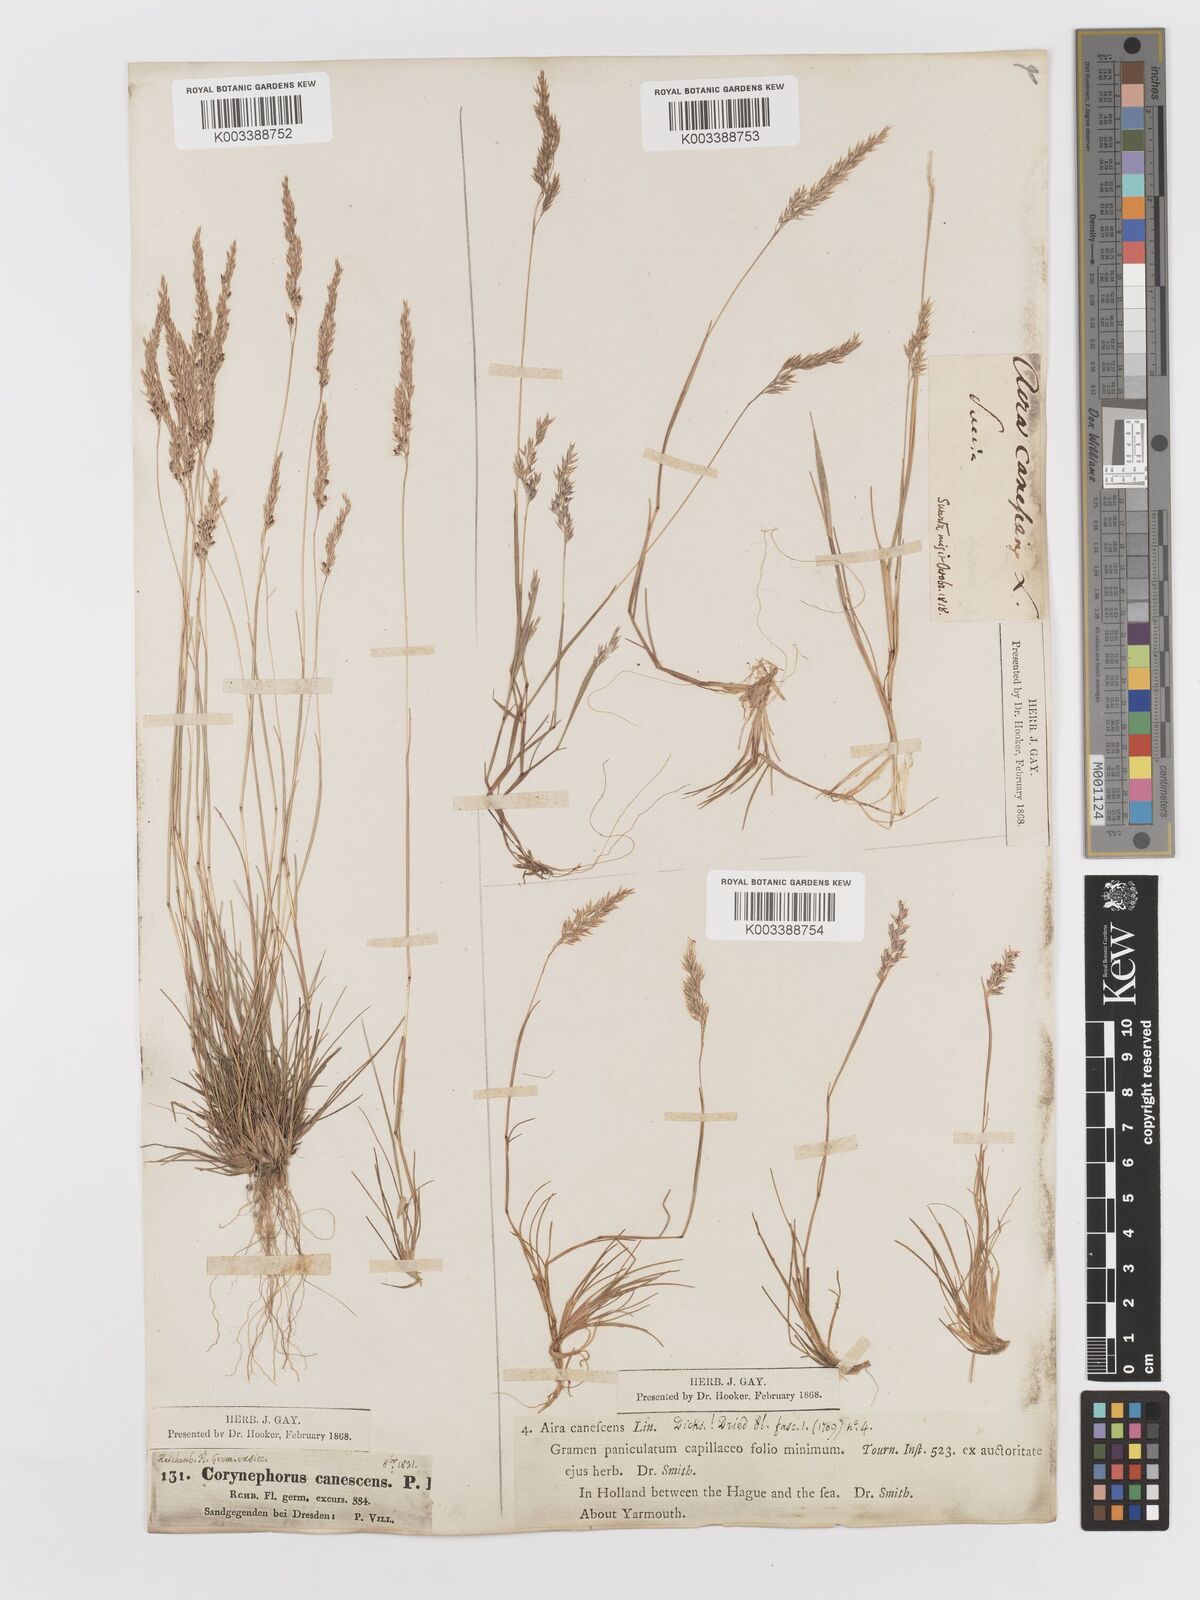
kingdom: Plantae
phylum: Tracheophyta
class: Liliopsida
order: Poales
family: Poaceae
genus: Corynephorus
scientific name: Corynephorus canescens
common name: Grey hair-grass
